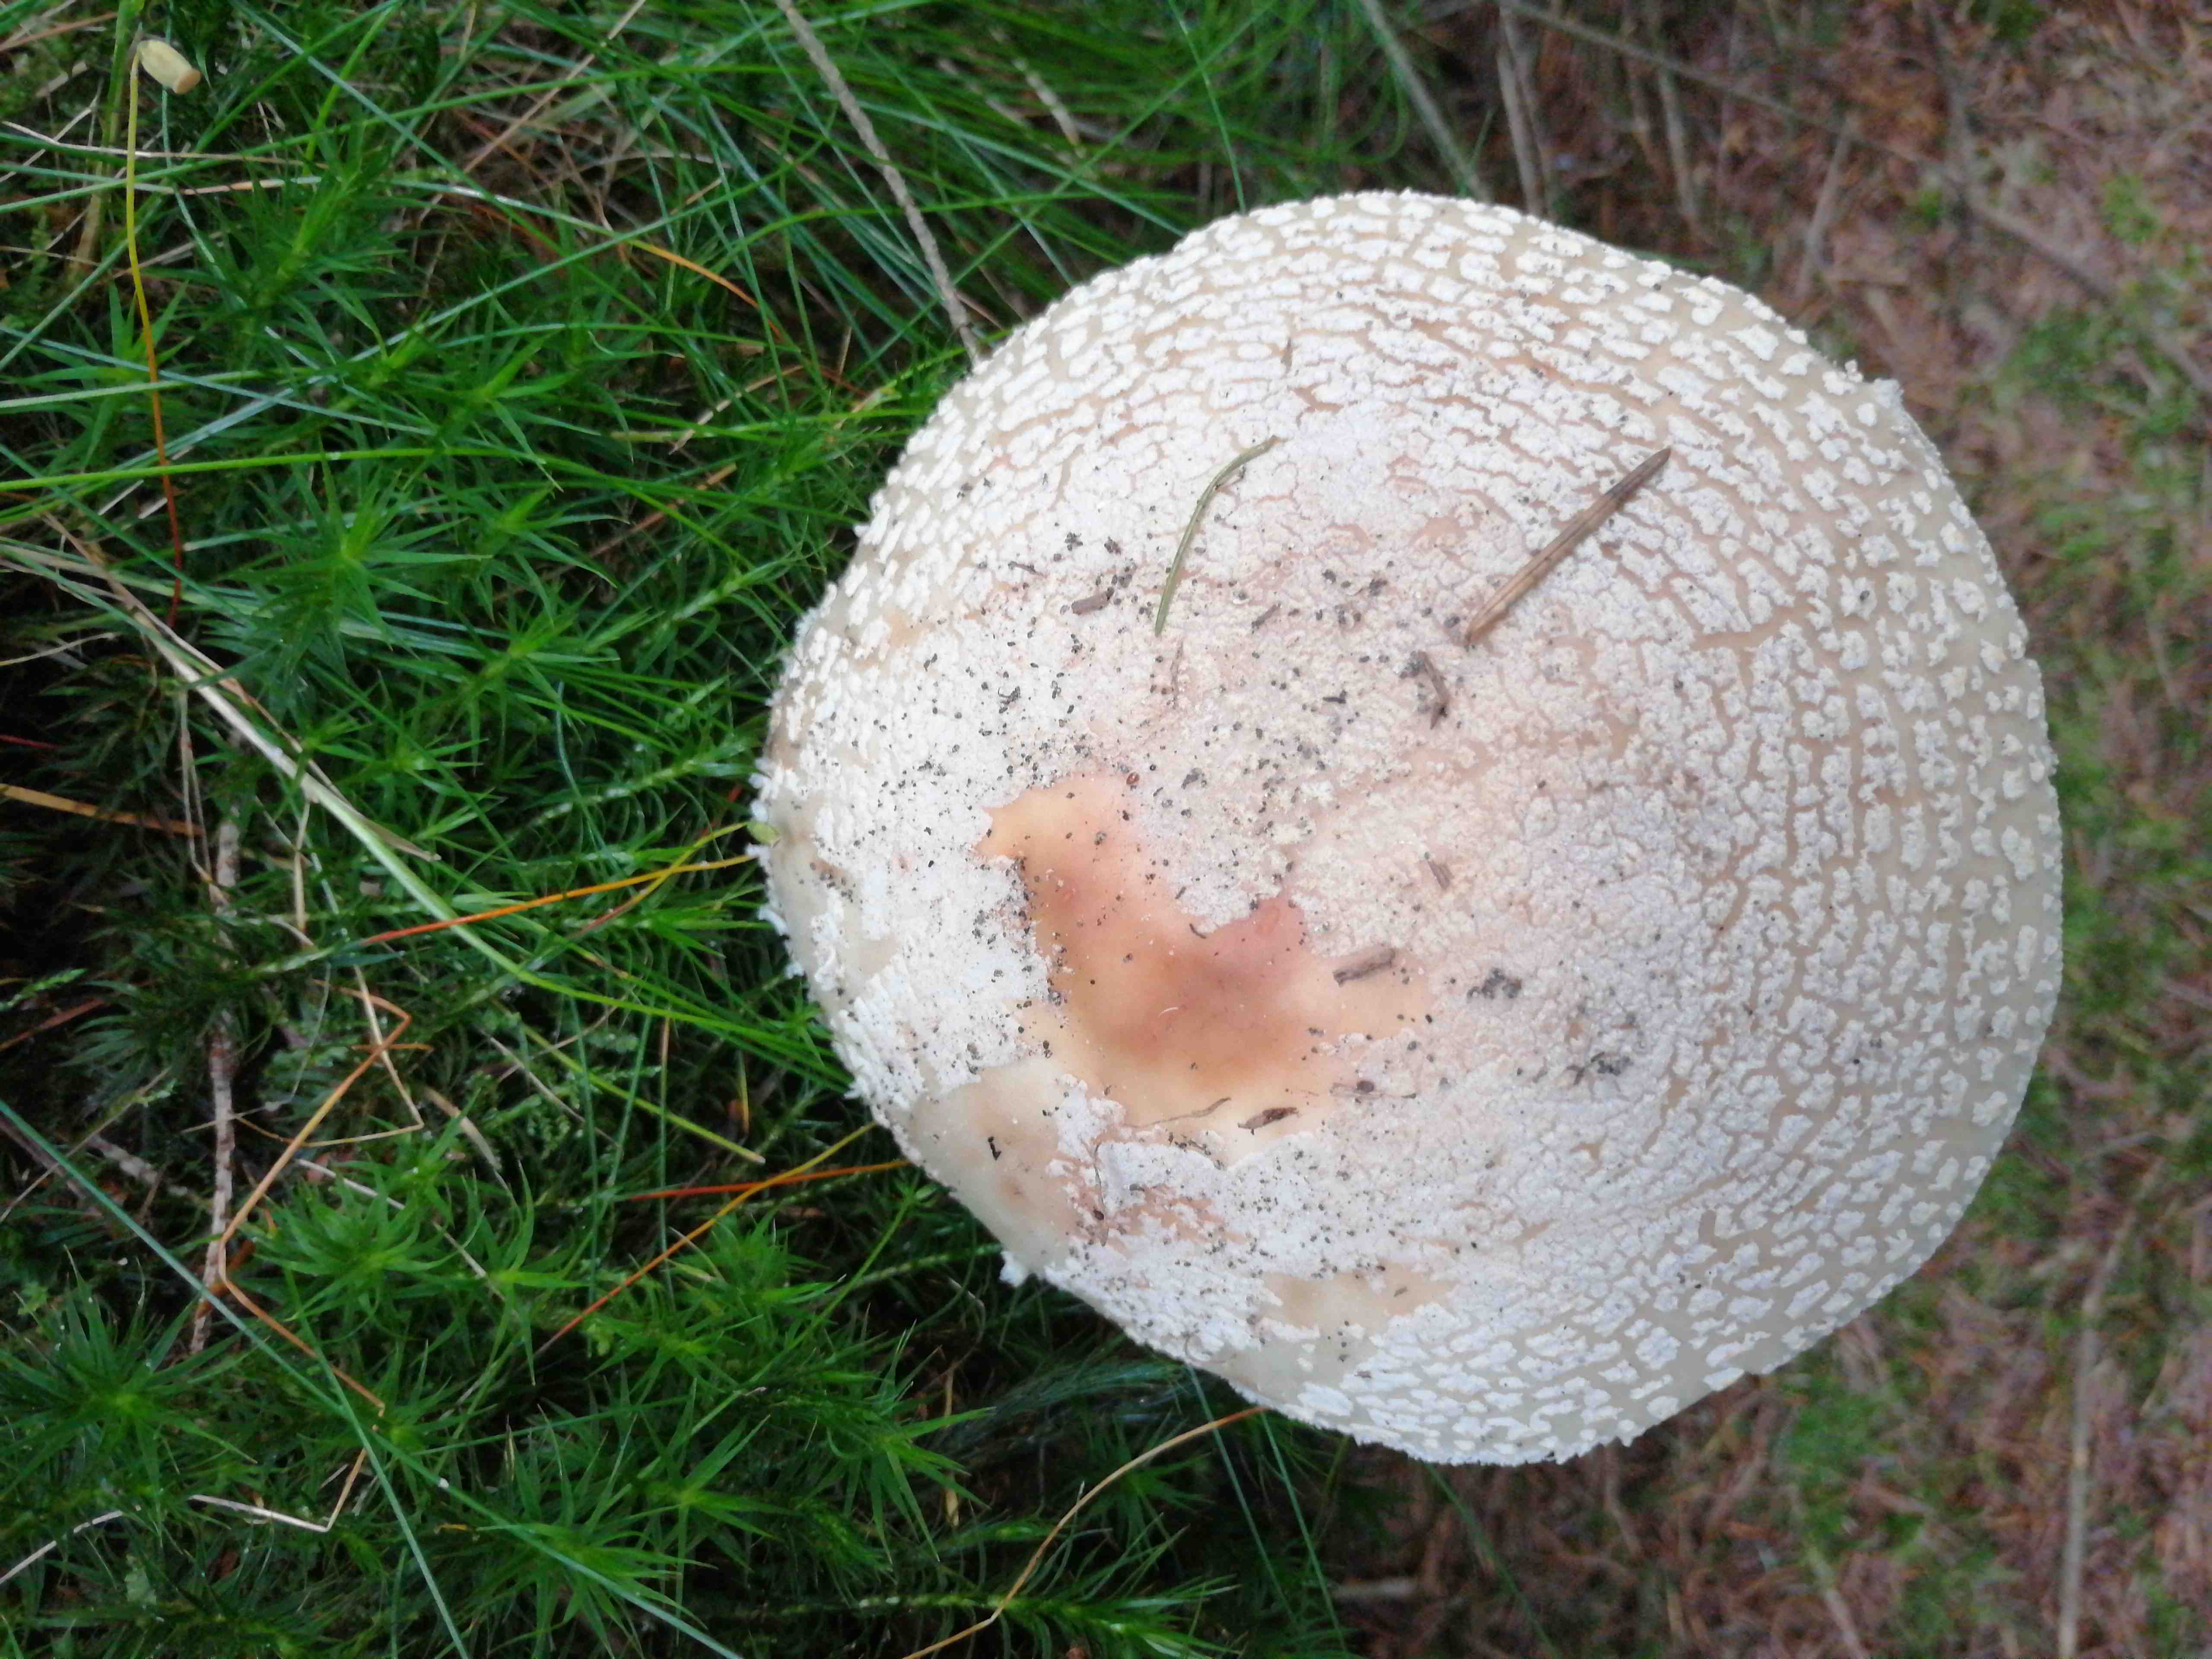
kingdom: Fungi
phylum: Basidiomycota
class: Agaricomycetes
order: Agaricales
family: Amanitaceae
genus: Amanita
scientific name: Amanita rubescens
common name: rødmende fluesvamp
